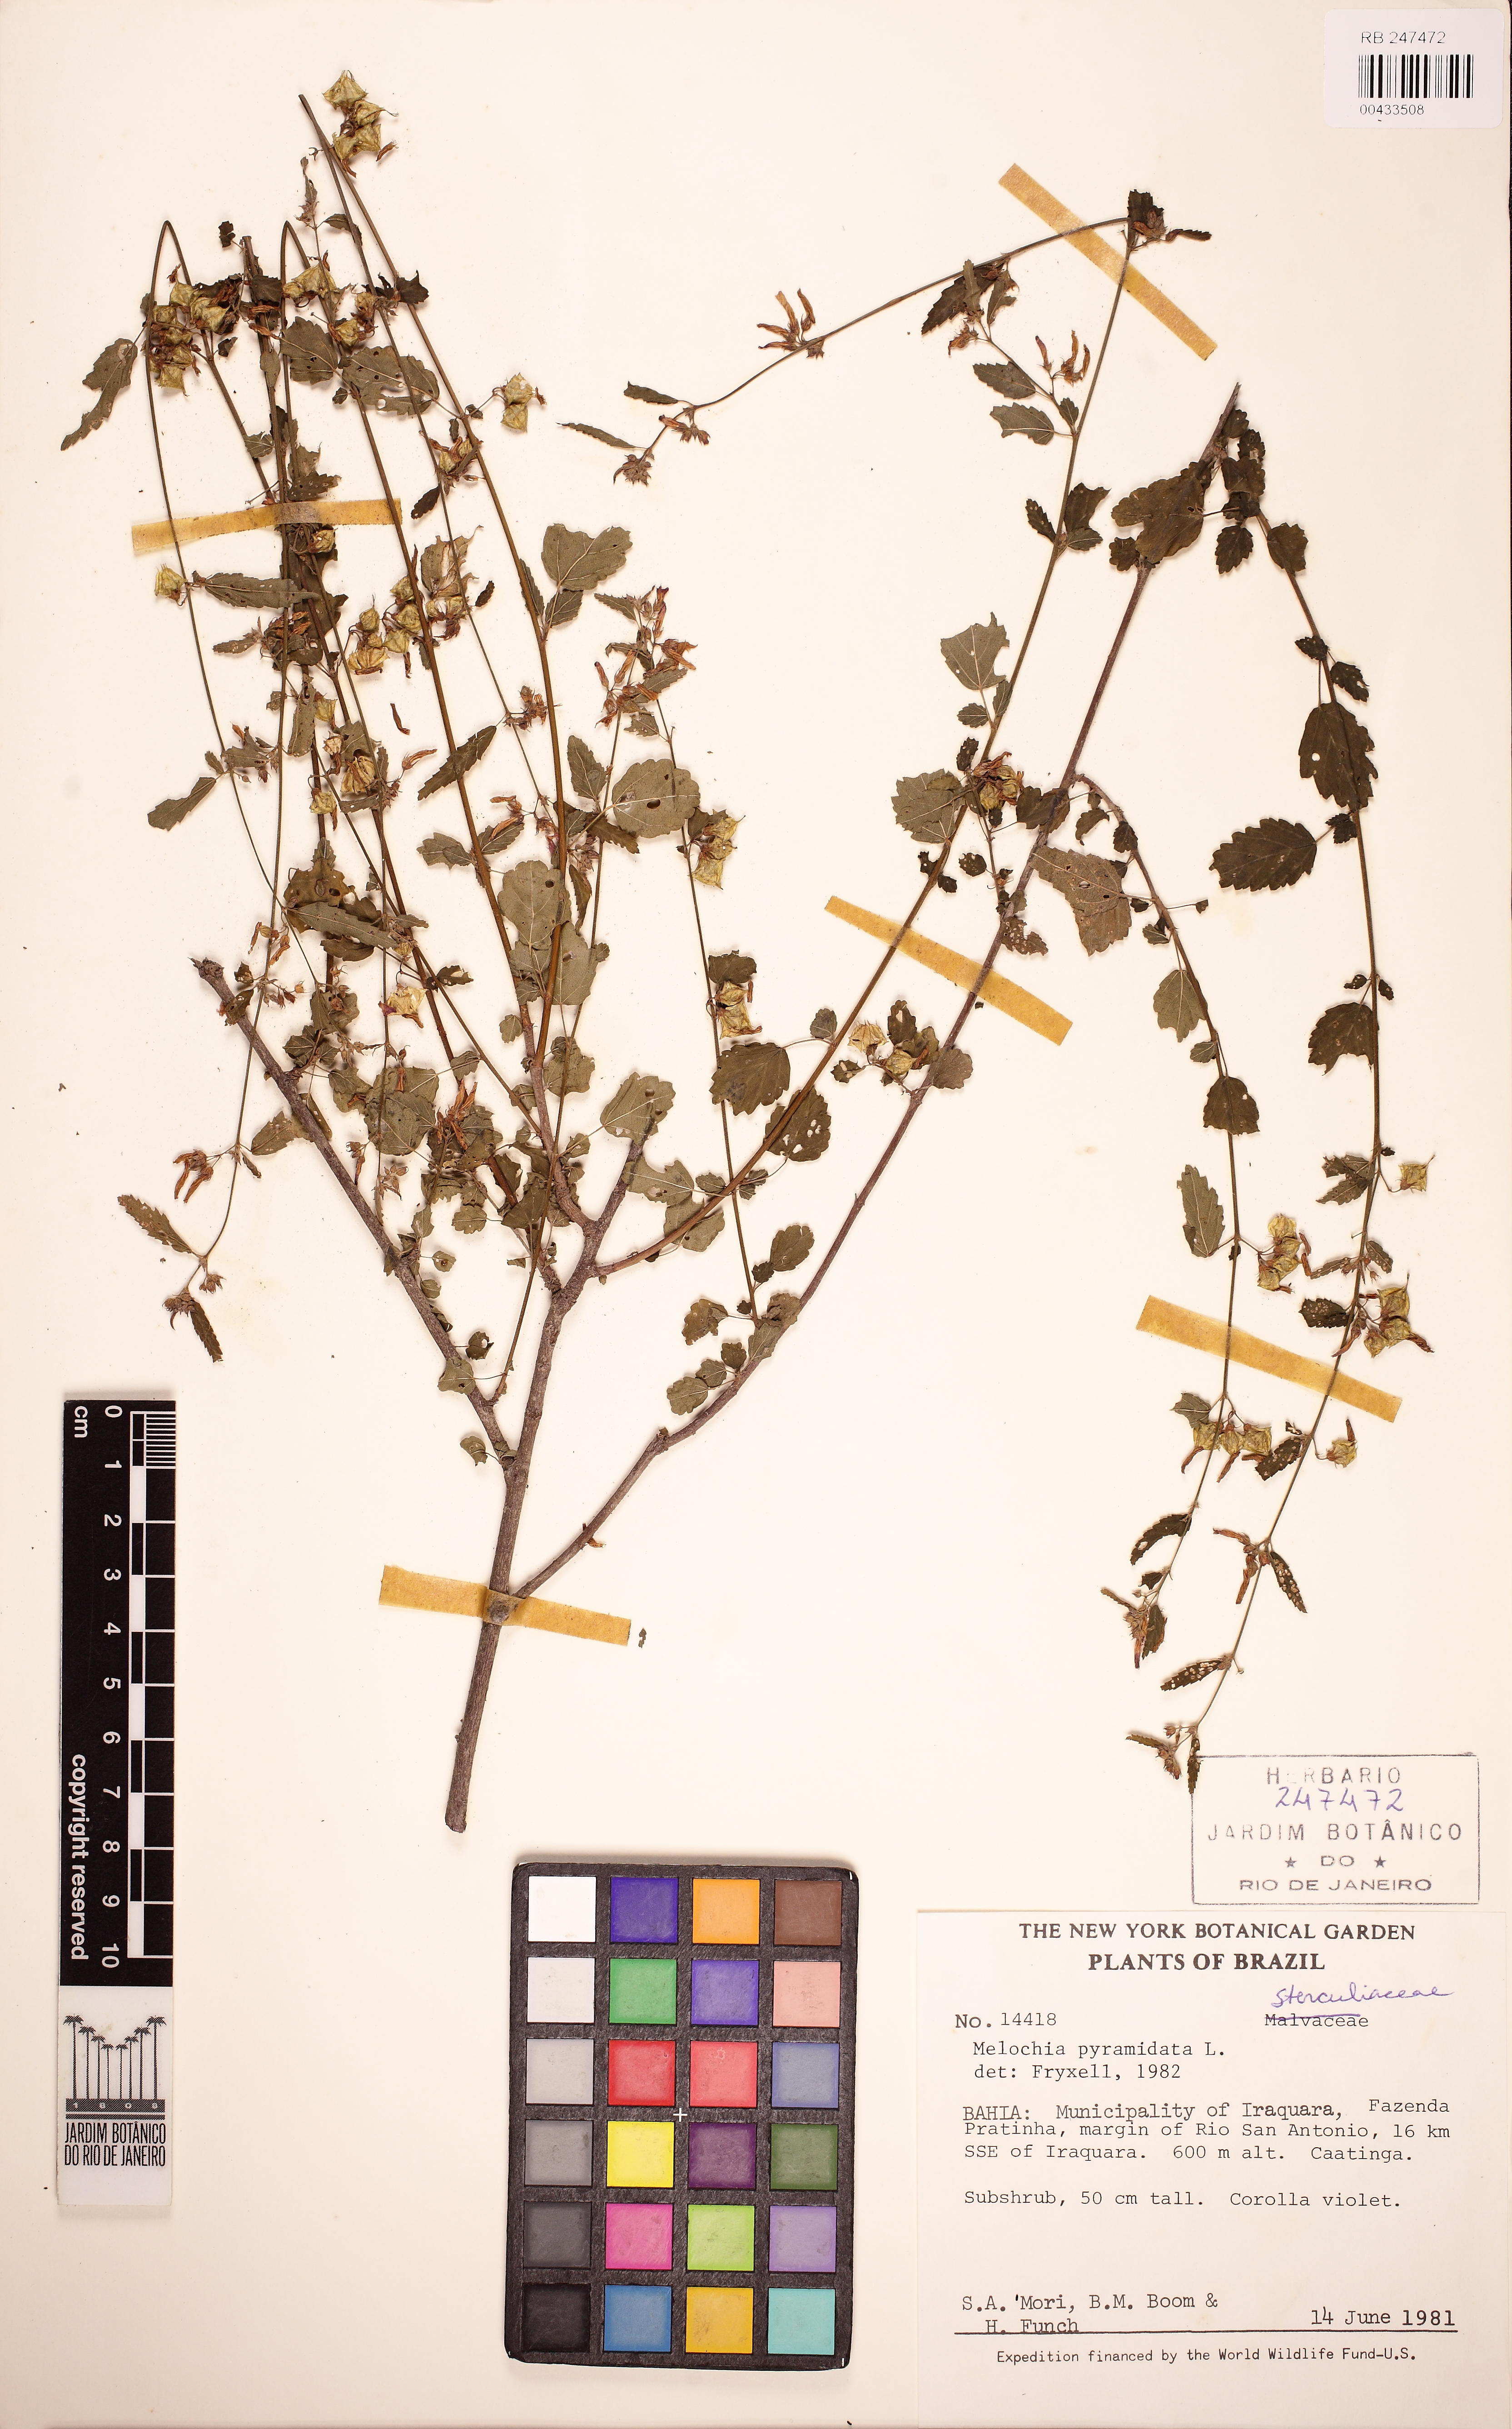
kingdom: Plantae
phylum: Tracheophyta
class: Magnoliopsida
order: Malvales
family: Malvaceae
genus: Melochia
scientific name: Melochia pyramidata
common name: Pyramidflower
